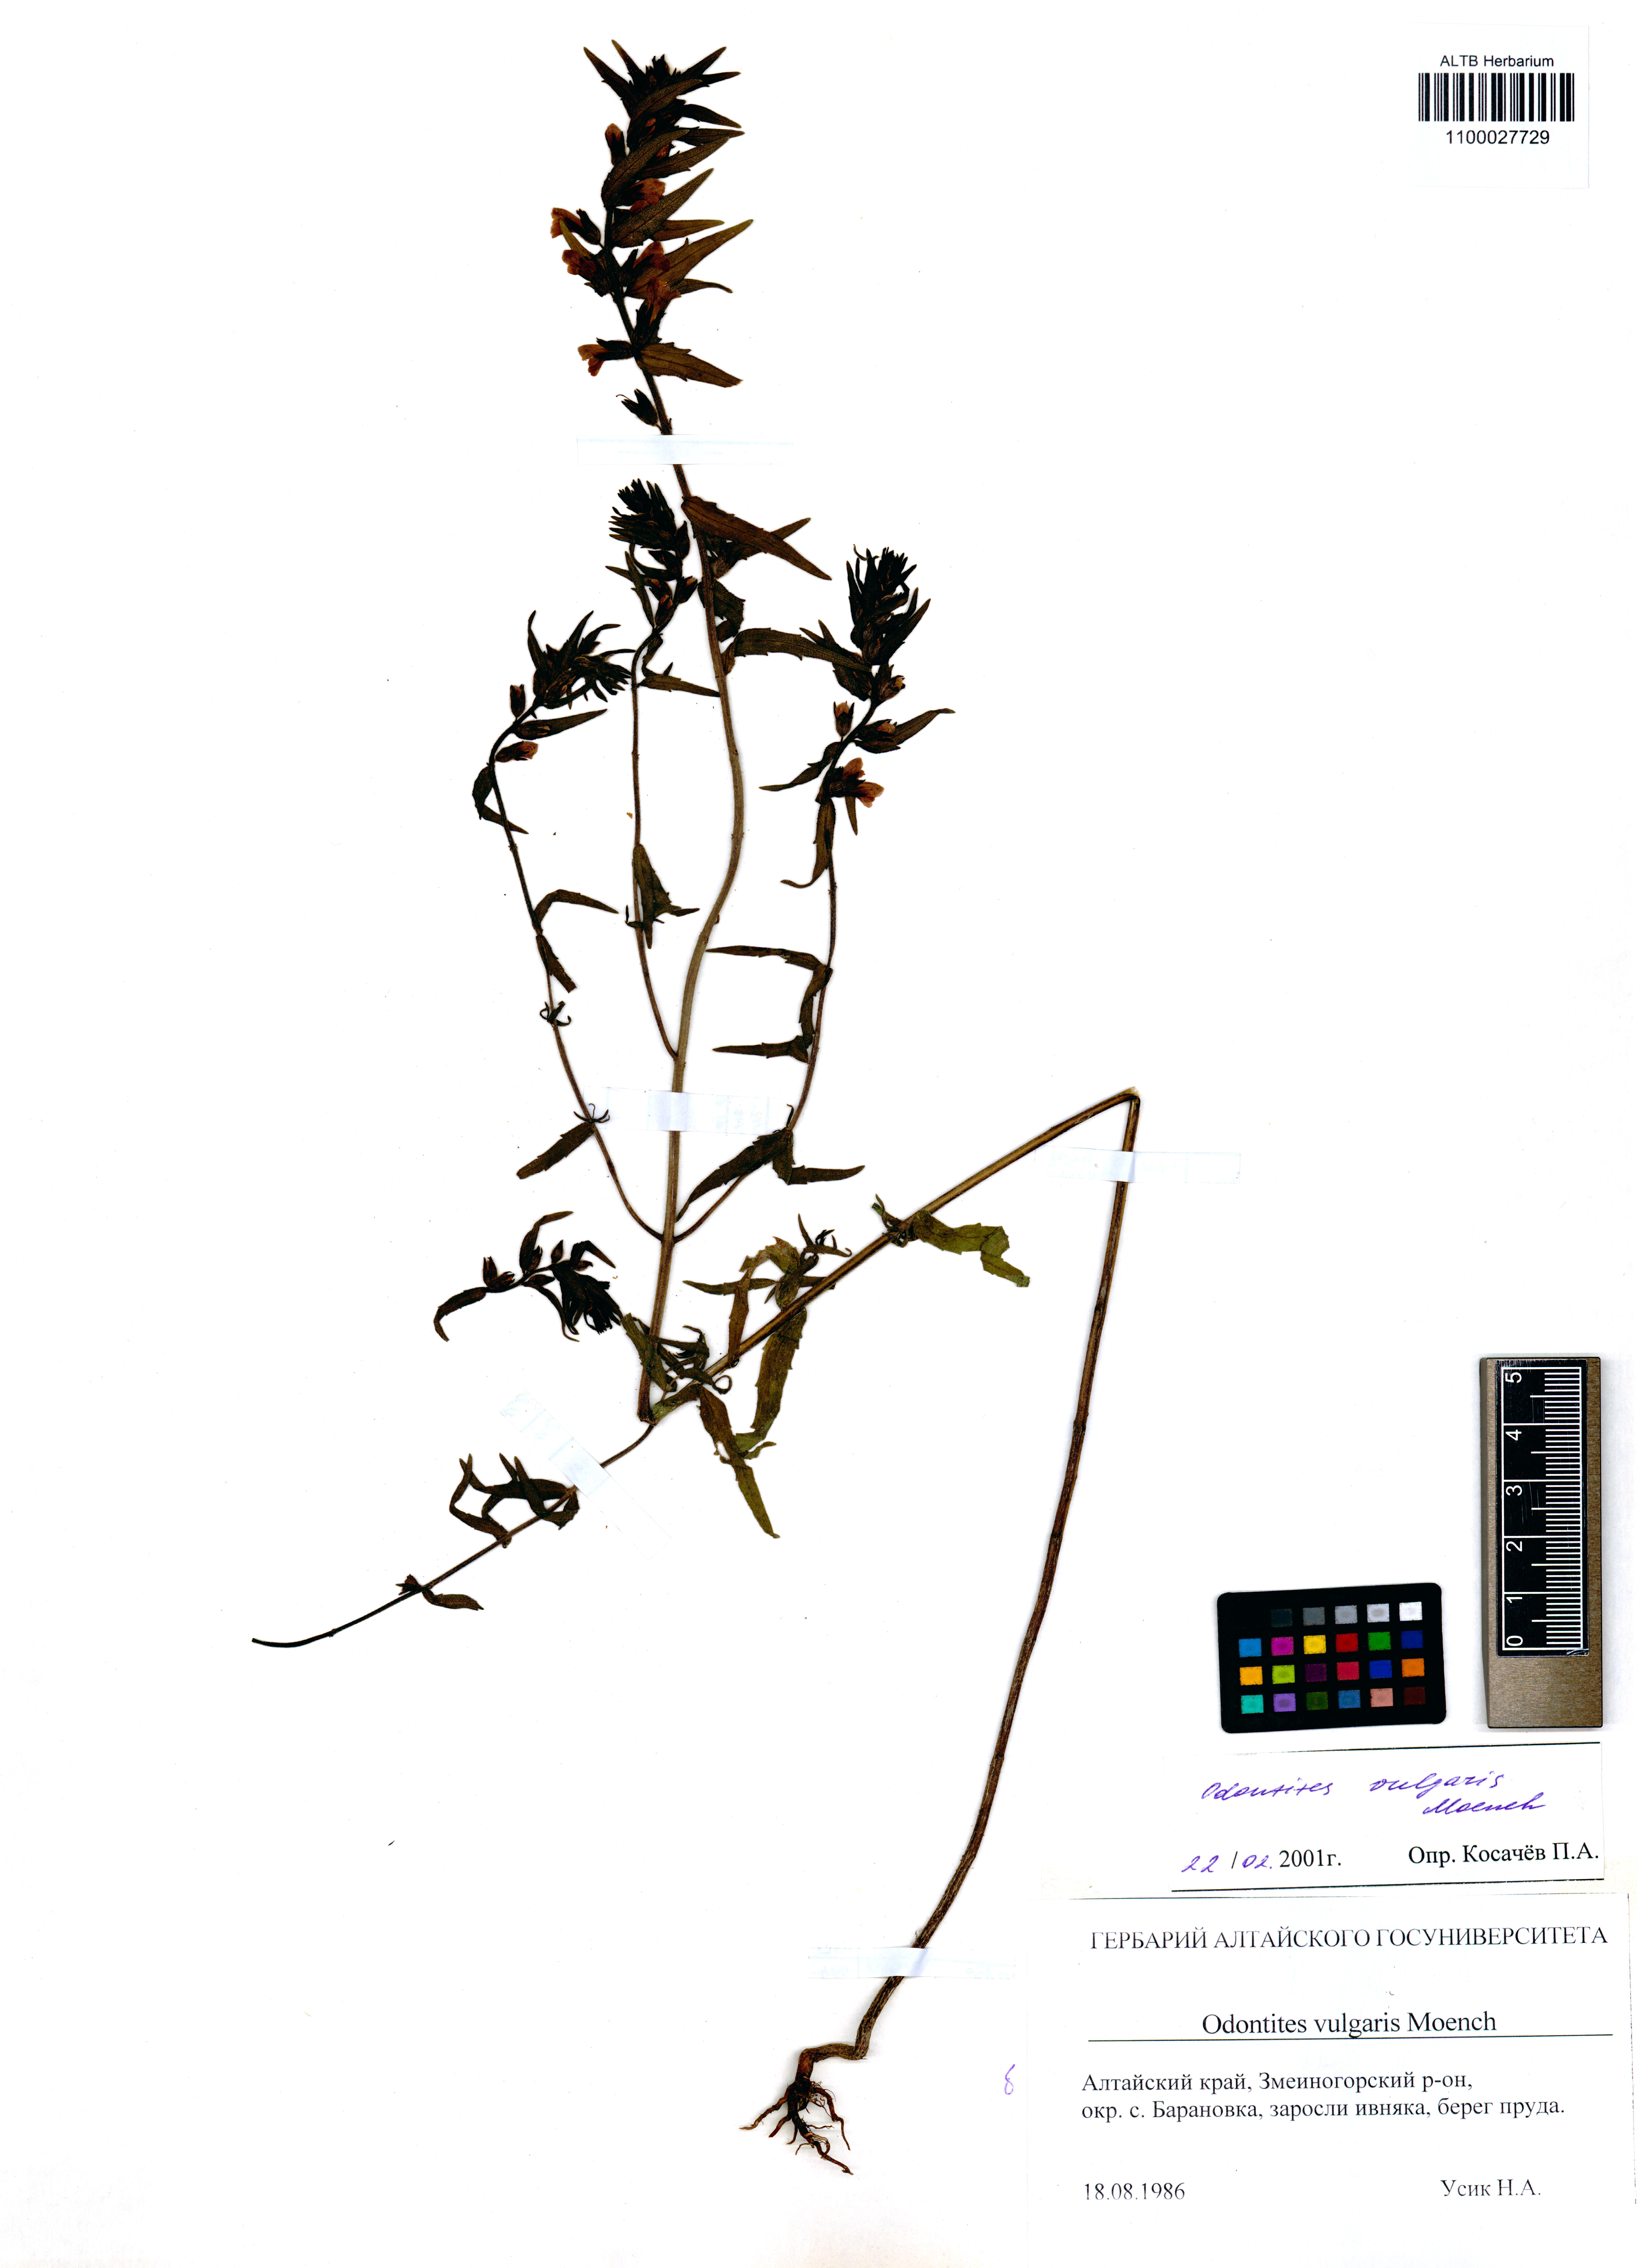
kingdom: Plantae
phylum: Tracheophyta
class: Magnoliopsida
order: Lamiales
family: Orobanchaceae
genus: Odontites
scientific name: Odontites vulgaris
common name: Broomrape
